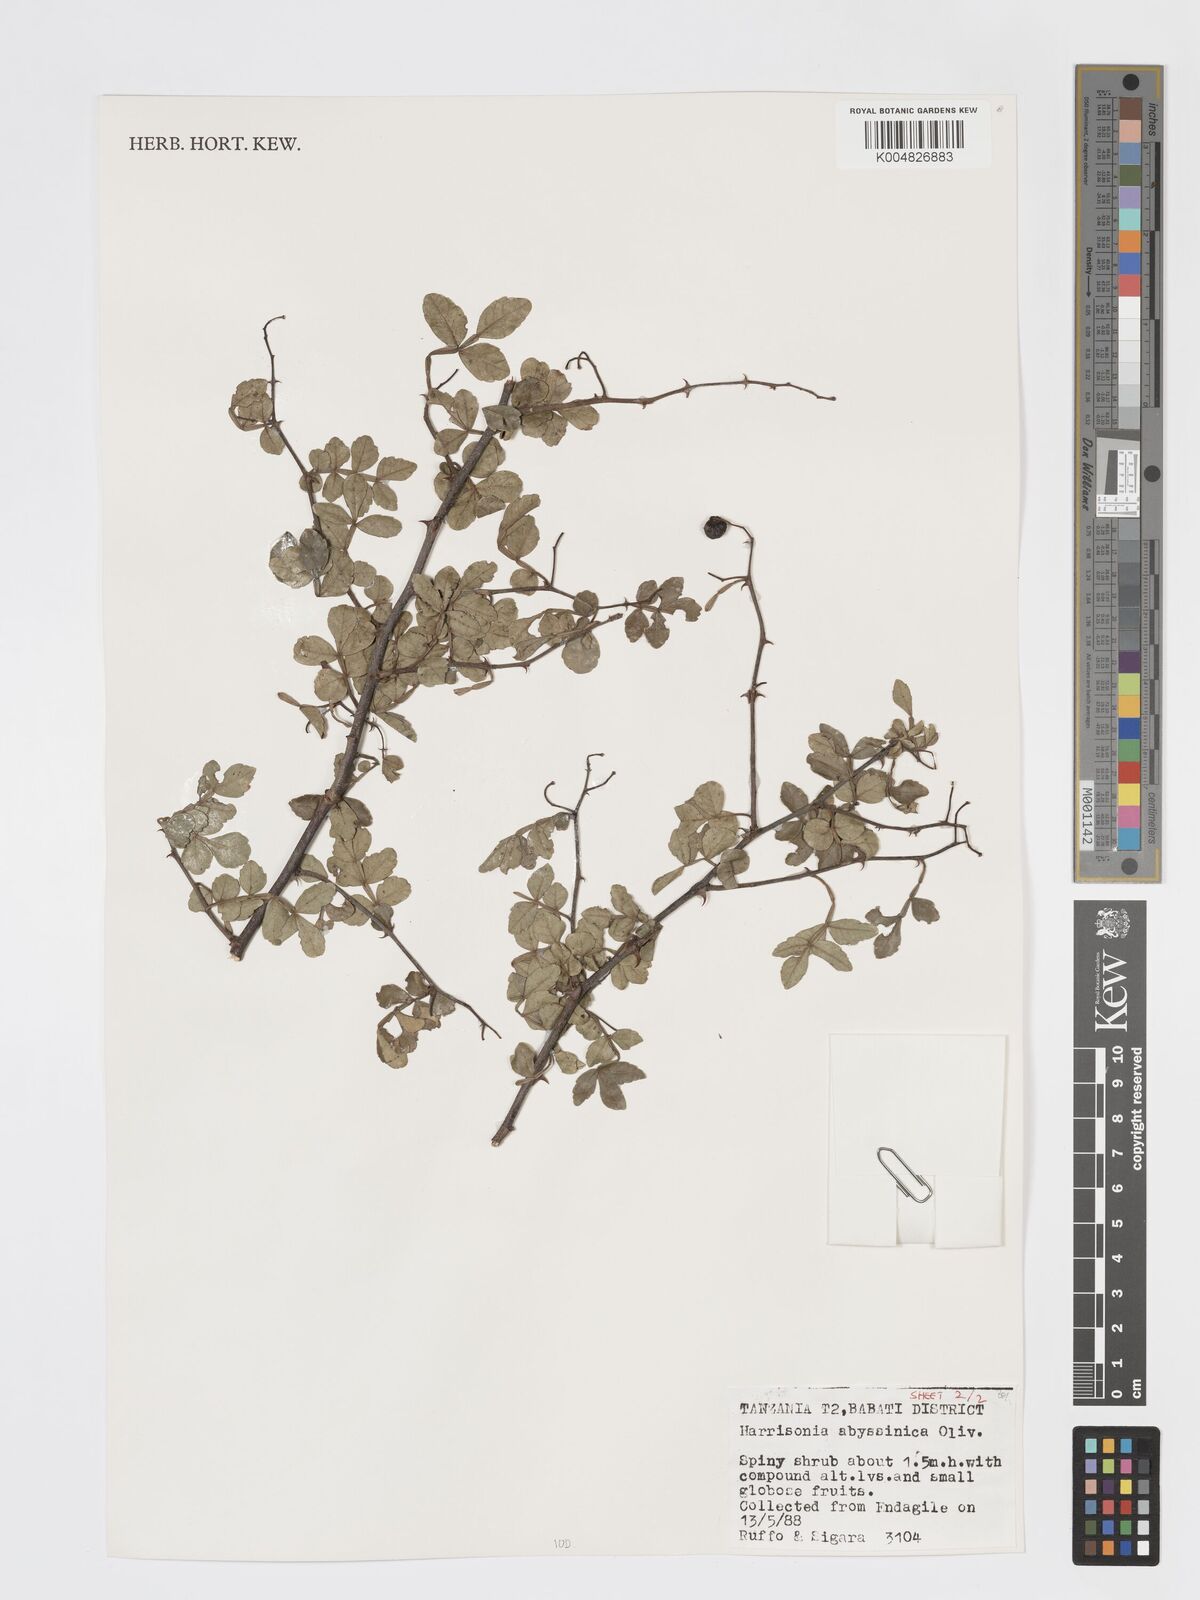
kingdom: Plantae
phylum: Tracheophyta
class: Magnoliopsida
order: Sapindales
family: Rutaceae
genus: Harrisonia
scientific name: Harrisonia abyssinica
